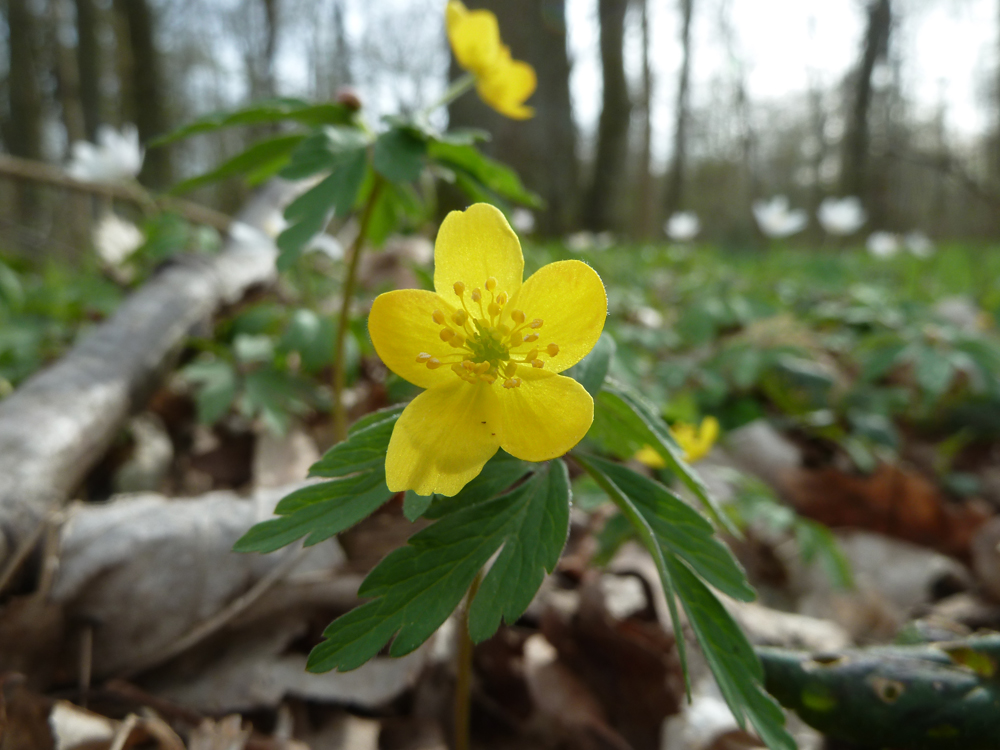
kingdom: Plantae
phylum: Tracheophyta
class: Magnoliopsida
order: Ranunculales
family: Ranunculaceae
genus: Anemone
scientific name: Anemone ranunculoides
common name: Yellow anemone
